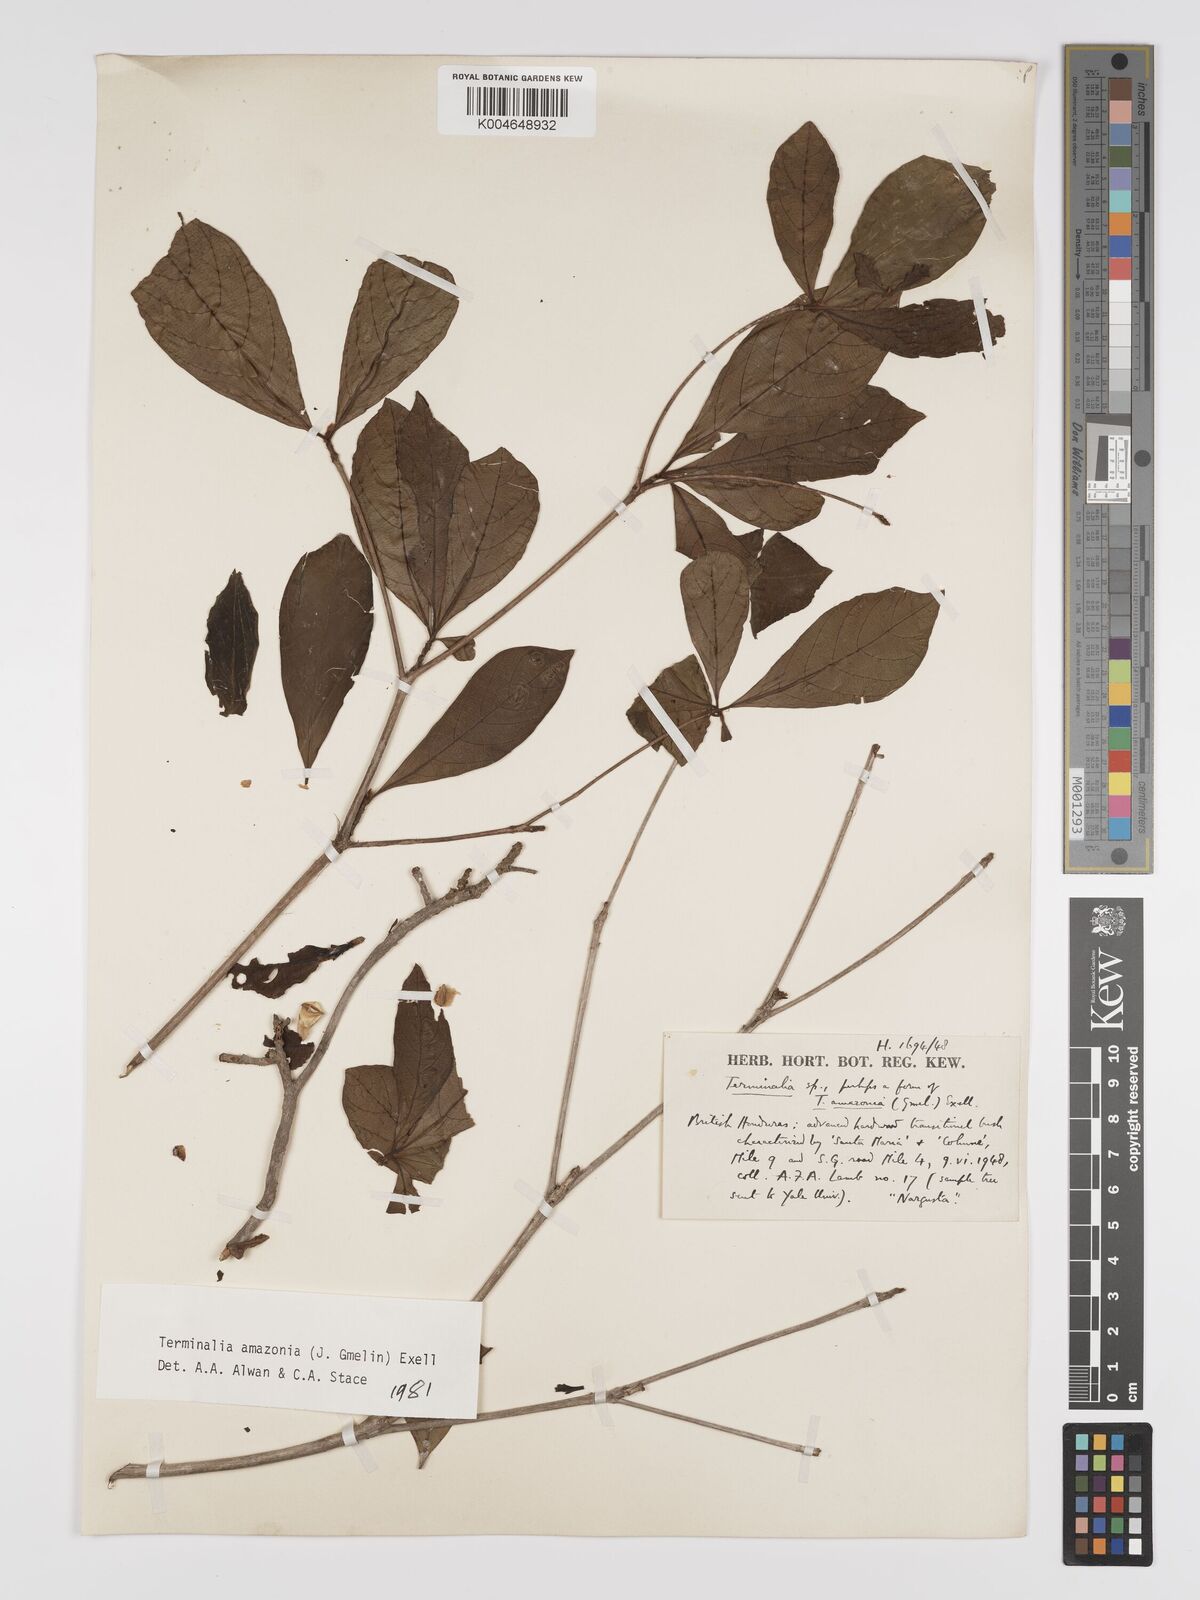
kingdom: Plantae
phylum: Tracheophyta
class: Magnoliopsida
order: Myrtales
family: Combretaceae
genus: Terminalia
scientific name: Terminalia amazonica
